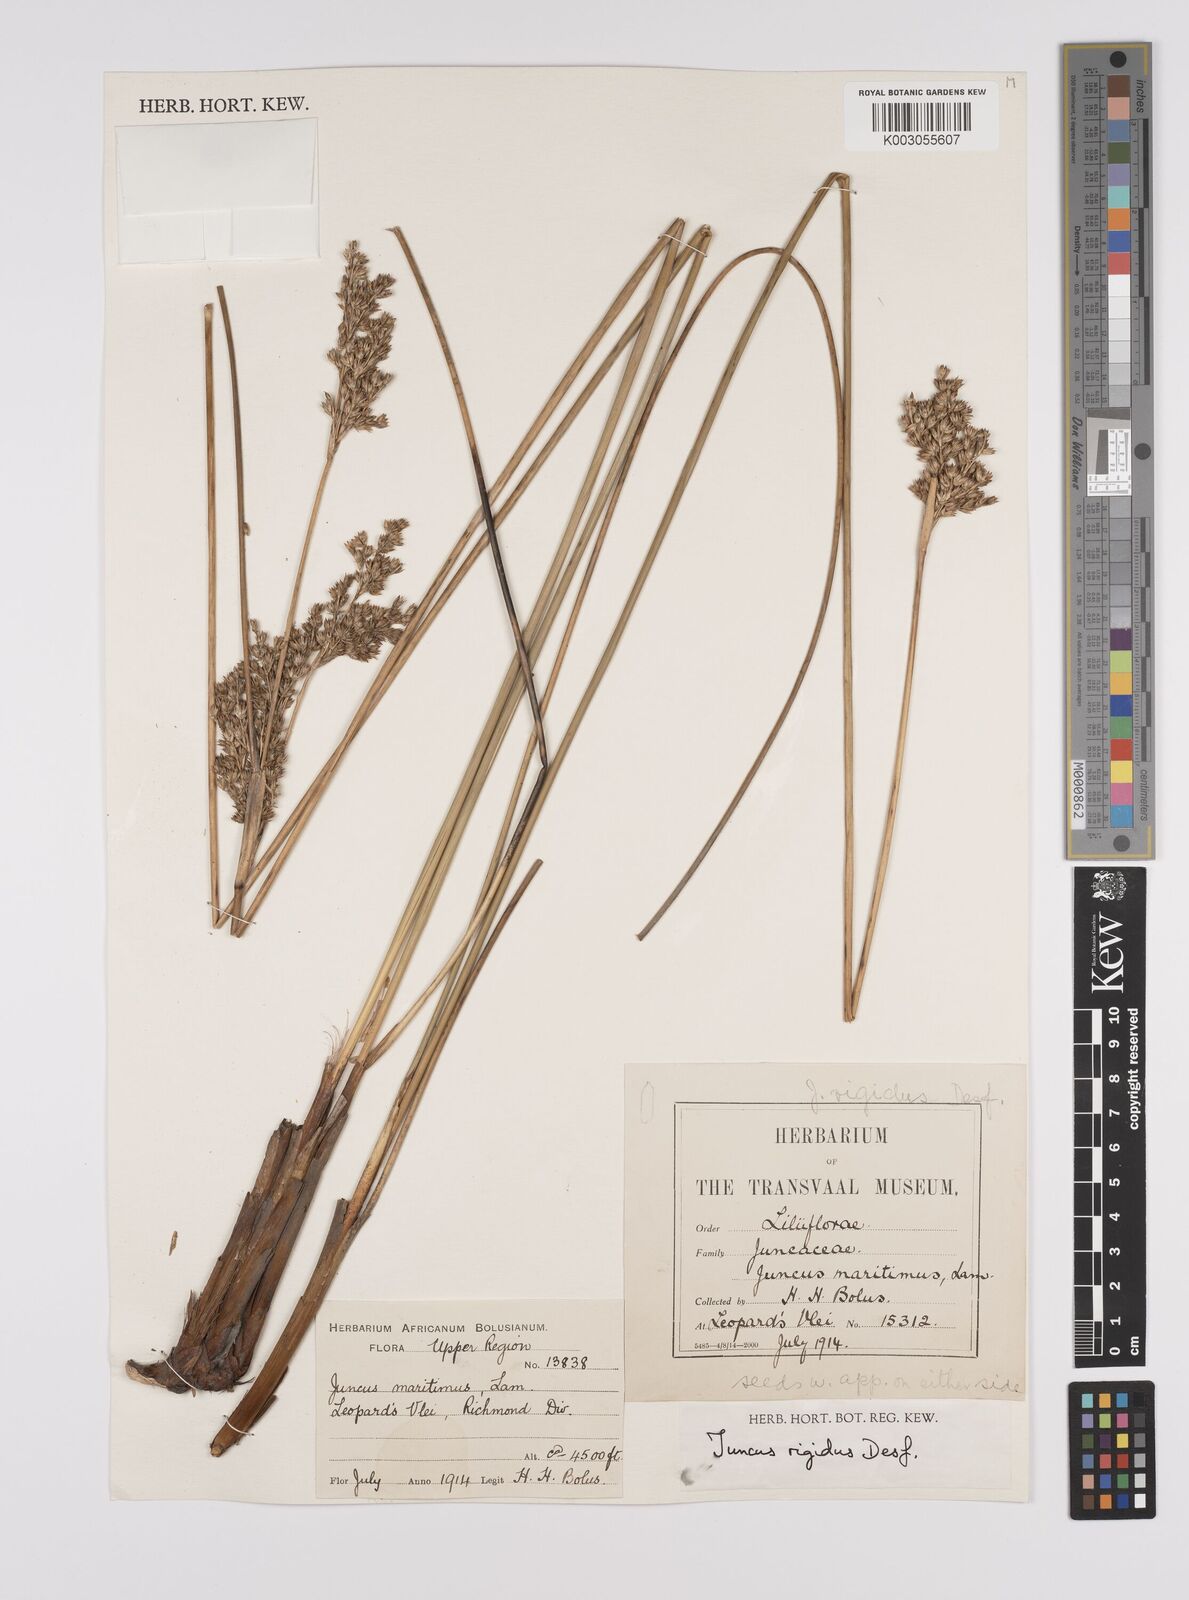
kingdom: Plantae
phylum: Tracheophyta
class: Liliopsida
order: Poales
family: Juncaceae
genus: Juncus
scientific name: Juncus rigidus
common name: Hard sea rush
